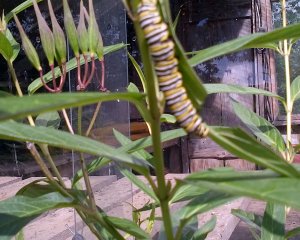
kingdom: Animalia
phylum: Arthropoda
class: Insecta
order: Lepidoptera
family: Nymphalidae
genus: Danaus
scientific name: Danaus plexippus
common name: Monarch
